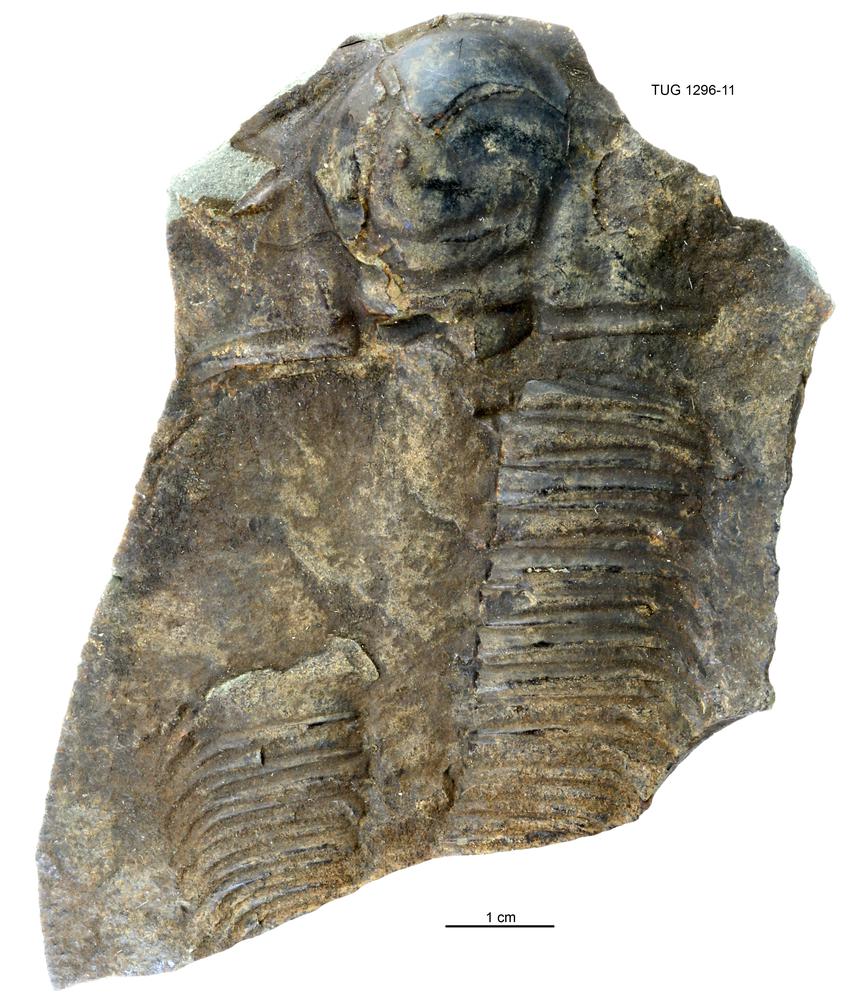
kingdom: Animalia
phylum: Arthropoda
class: Trilobita
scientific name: Trilobita
